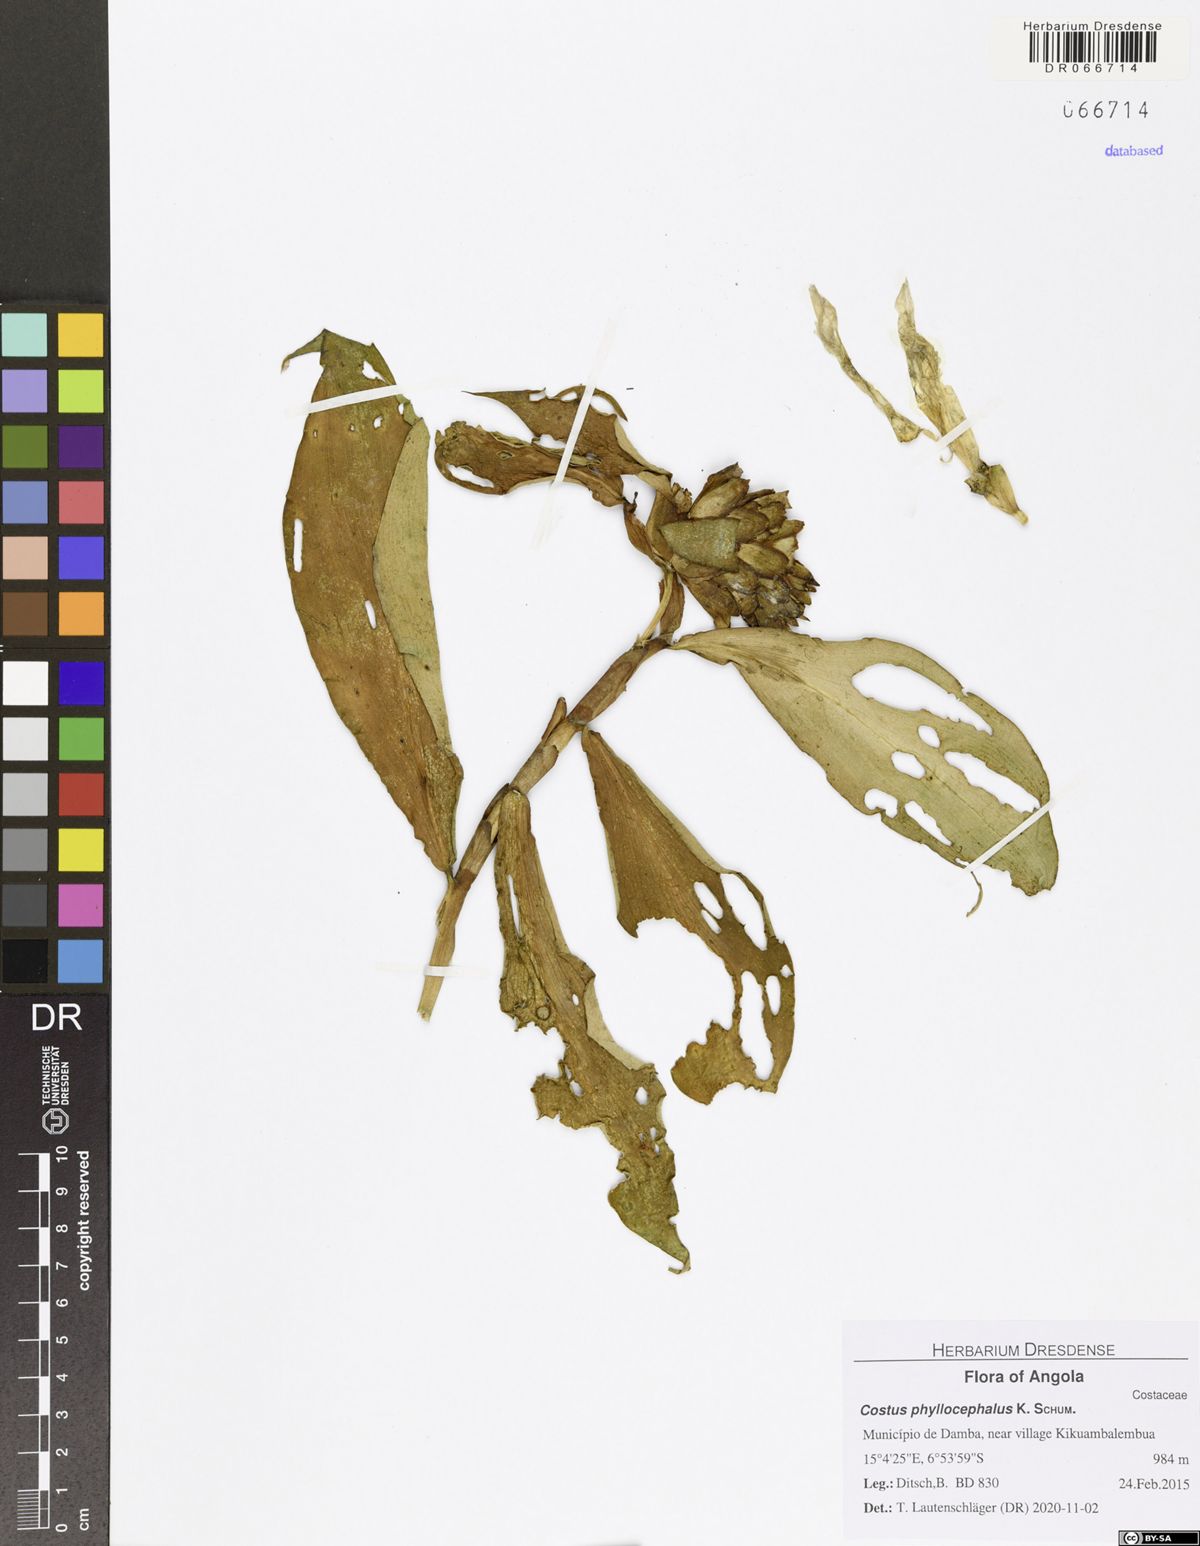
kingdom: Plantae
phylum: Tracheophyta
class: Liliopsida
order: Zingiberales
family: Costaceae
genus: Costus
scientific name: Costus phyllocephalus
